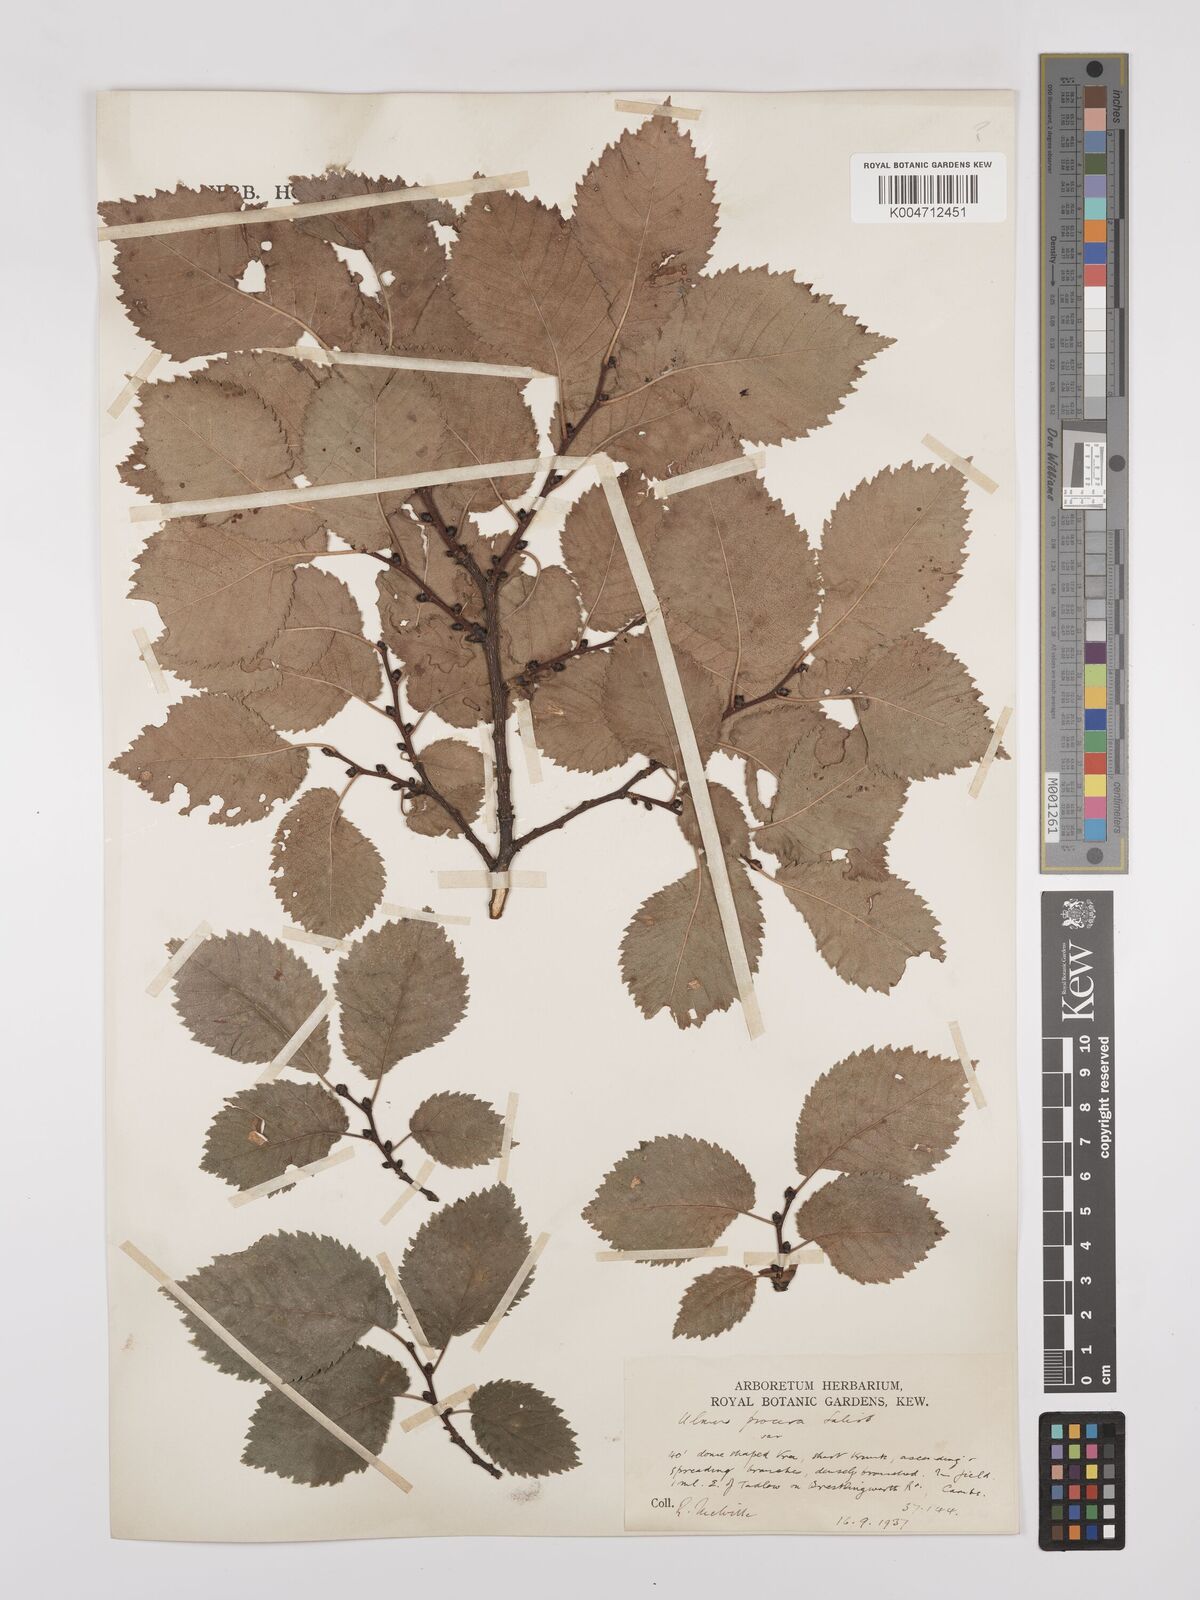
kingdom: Plantae
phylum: Tracheophyta
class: Magnoliopsida
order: Rosales
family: Ulmaceae
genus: Ulmus
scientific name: Ulmus minor
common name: Small-leaved elm
